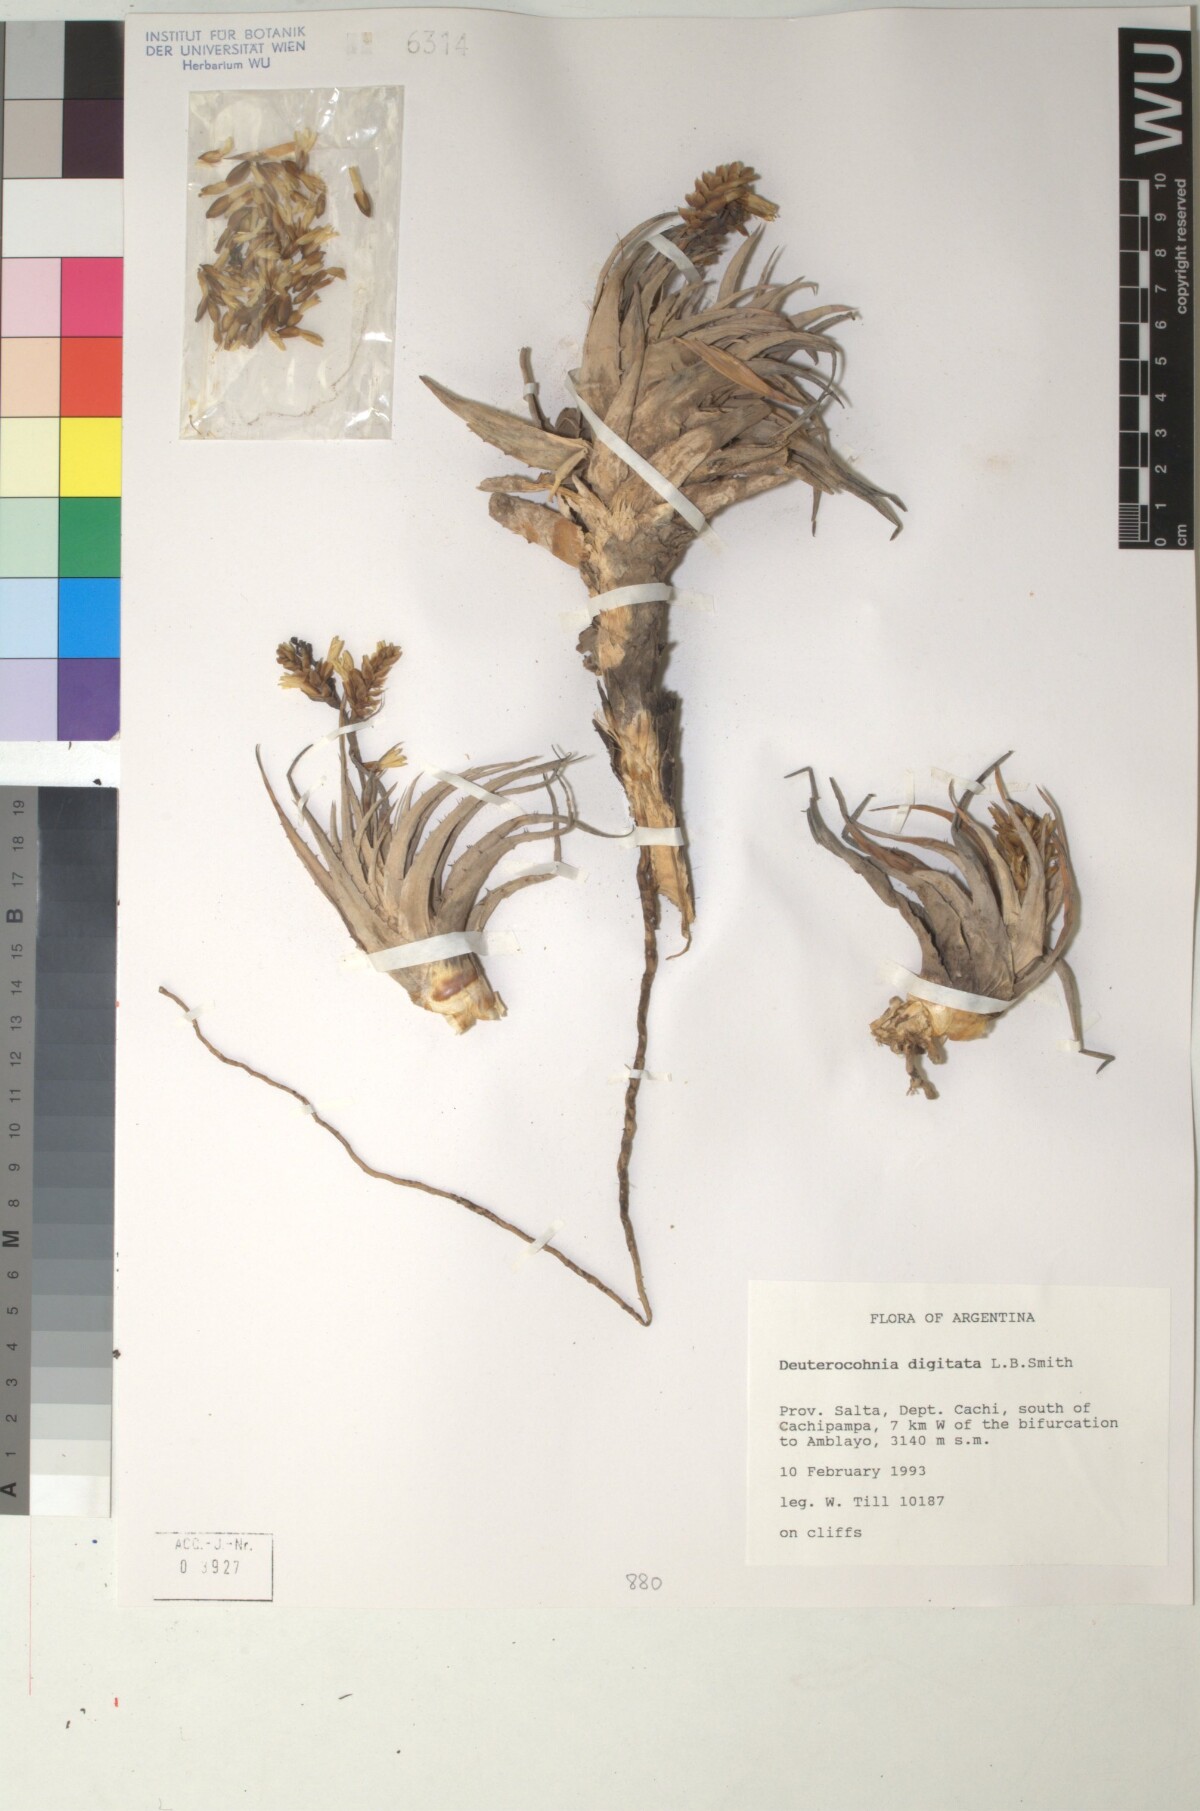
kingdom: Plantae
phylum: Tracheophyta
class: Liliopsida
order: Poales
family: Bromeliaceae
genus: Deuterocohnia
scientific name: Deuterocohnia digitata
